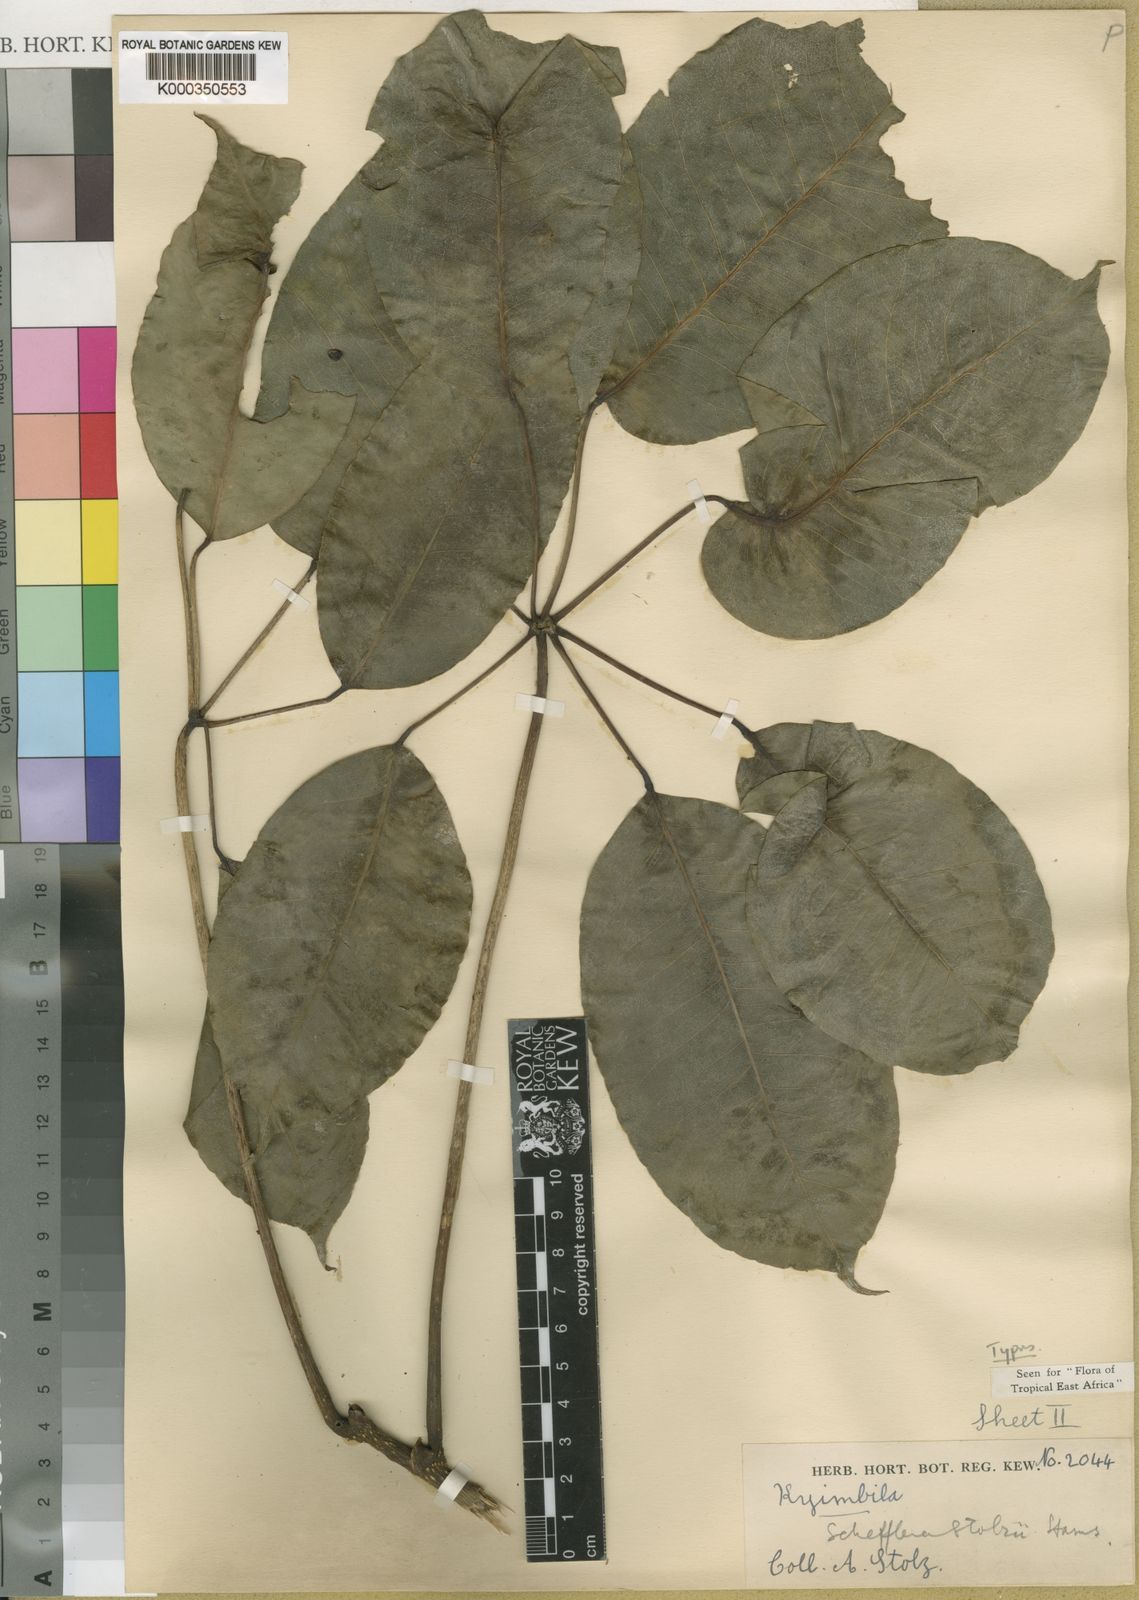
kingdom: Plantae
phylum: Tracheophyta
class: Magnoliopsida
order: Apiales
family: Araliaceae
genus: Astropanax
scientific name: Astropanax stolzii
